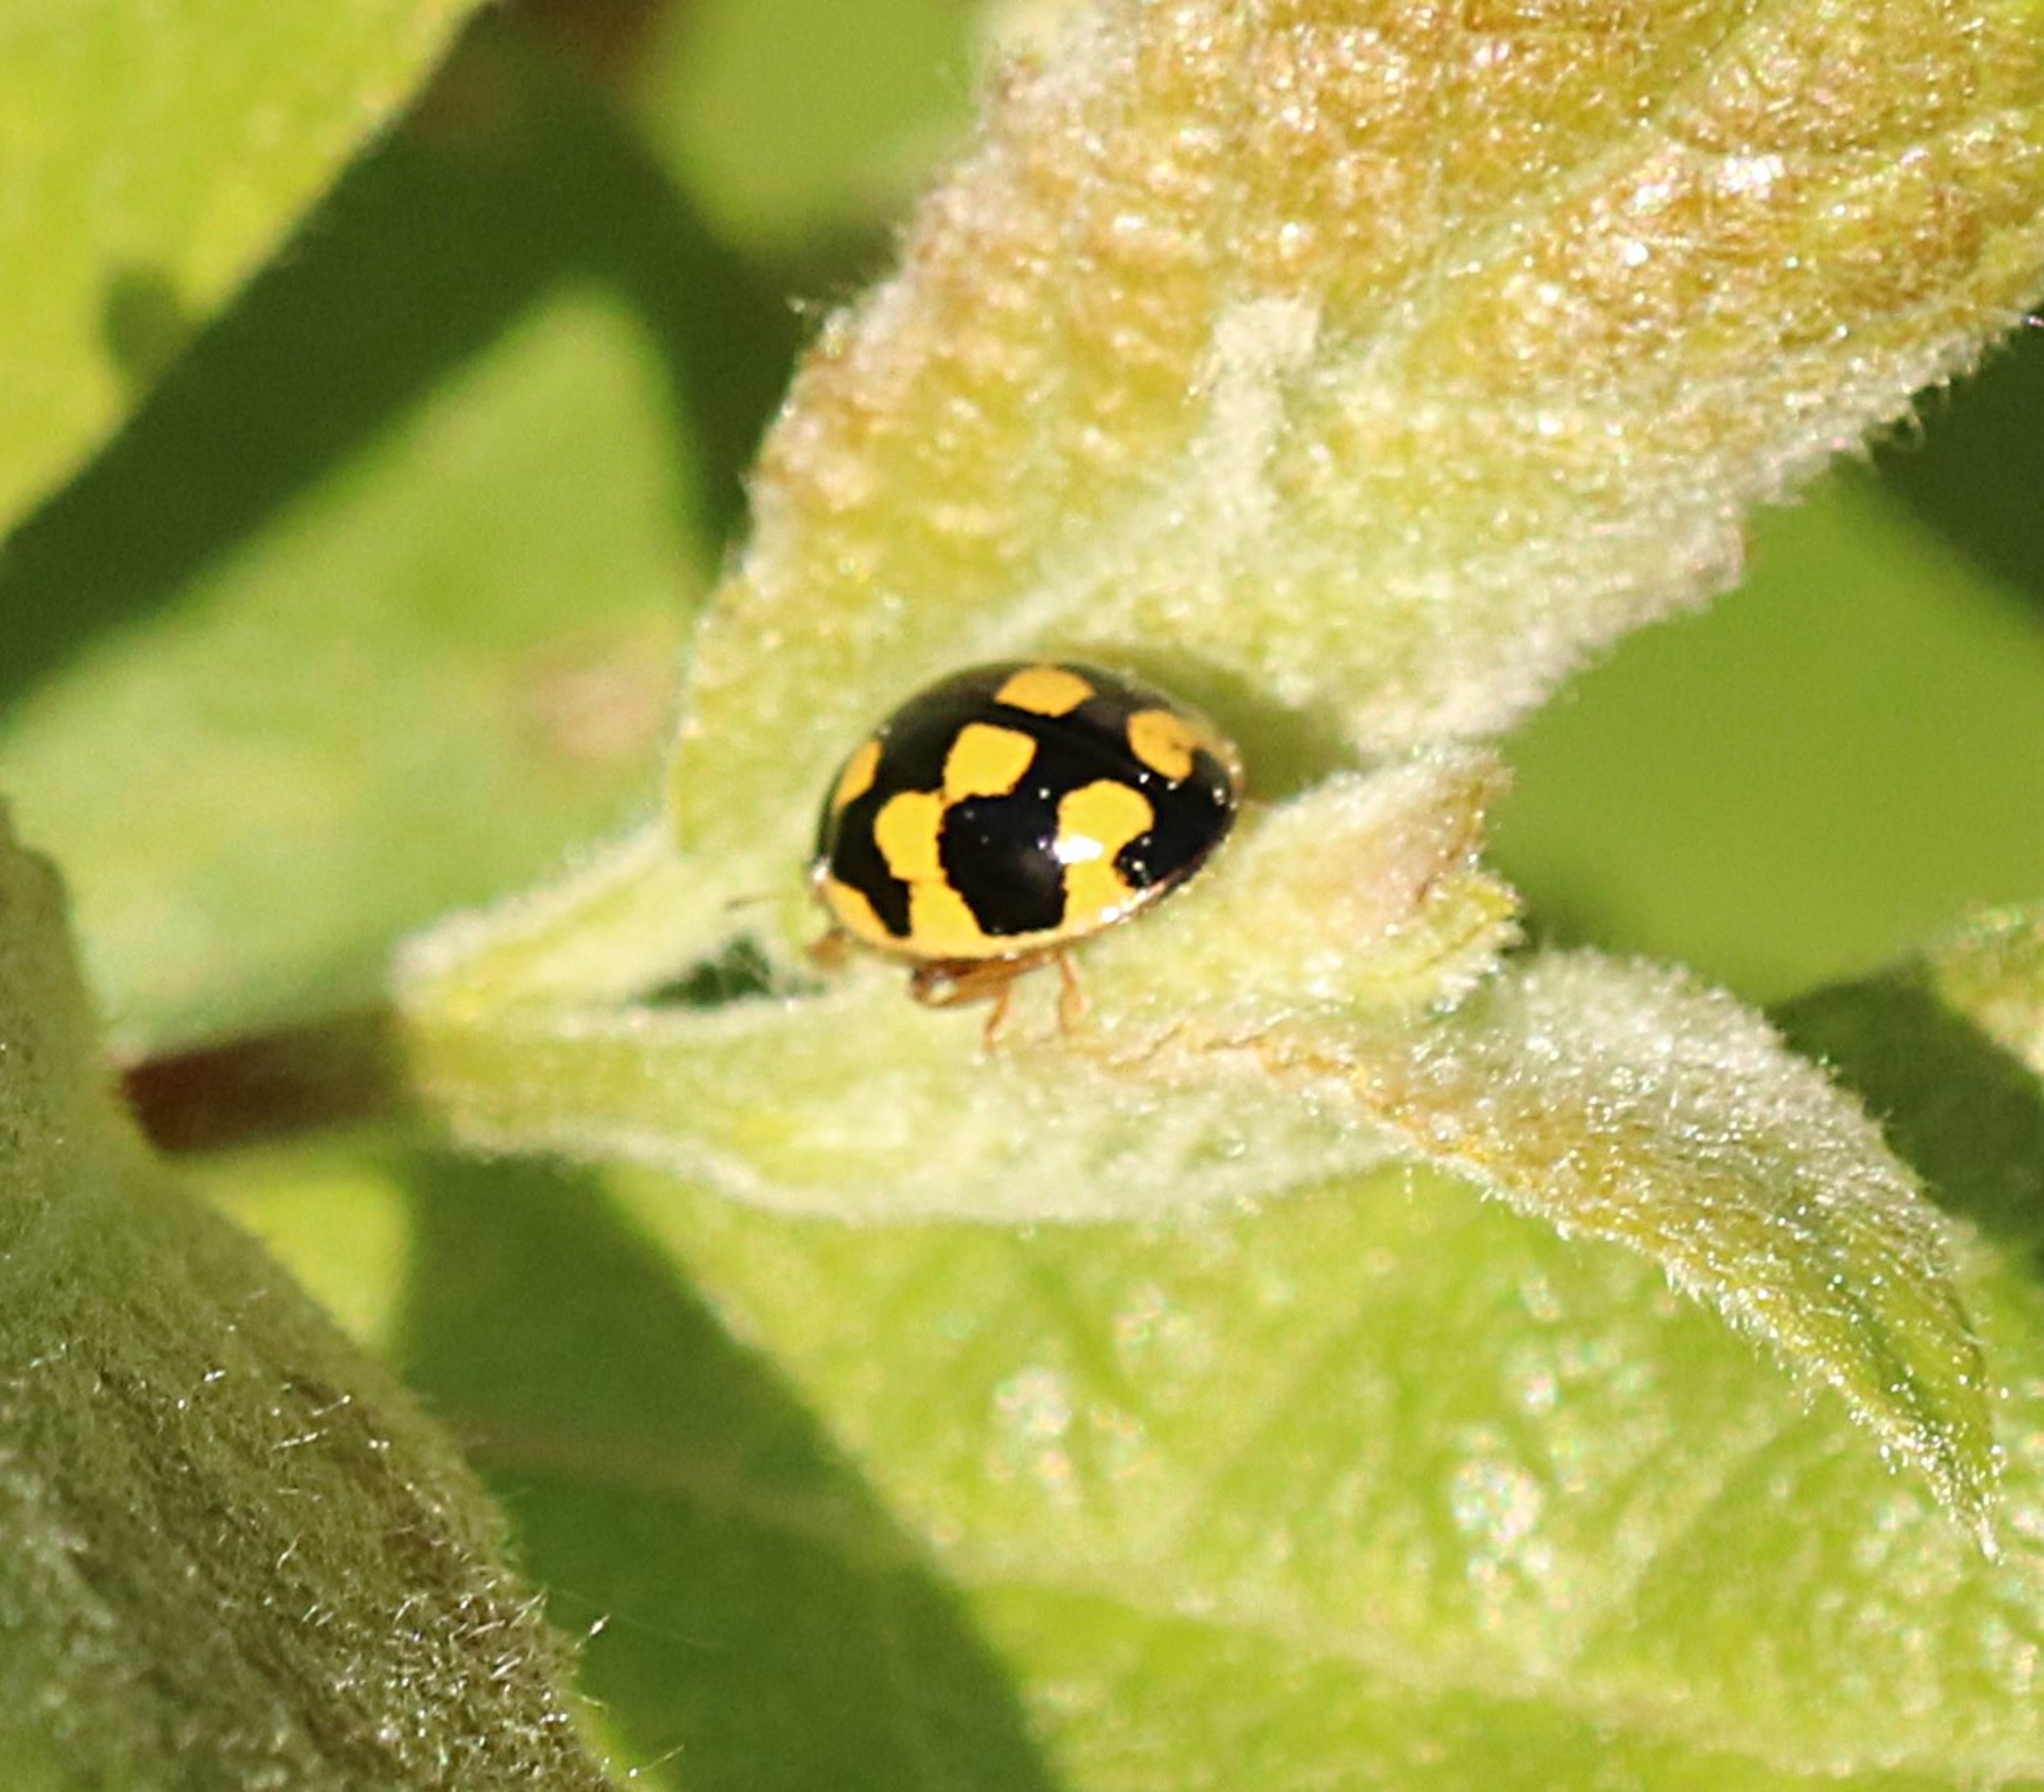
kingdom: Animalia
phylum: Arthropoda
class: Insecta
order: Coleoptera
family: Coccinellidae
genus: Propylaea
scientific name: Propylaea quatuordecimpunctata
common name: Skakbræt
